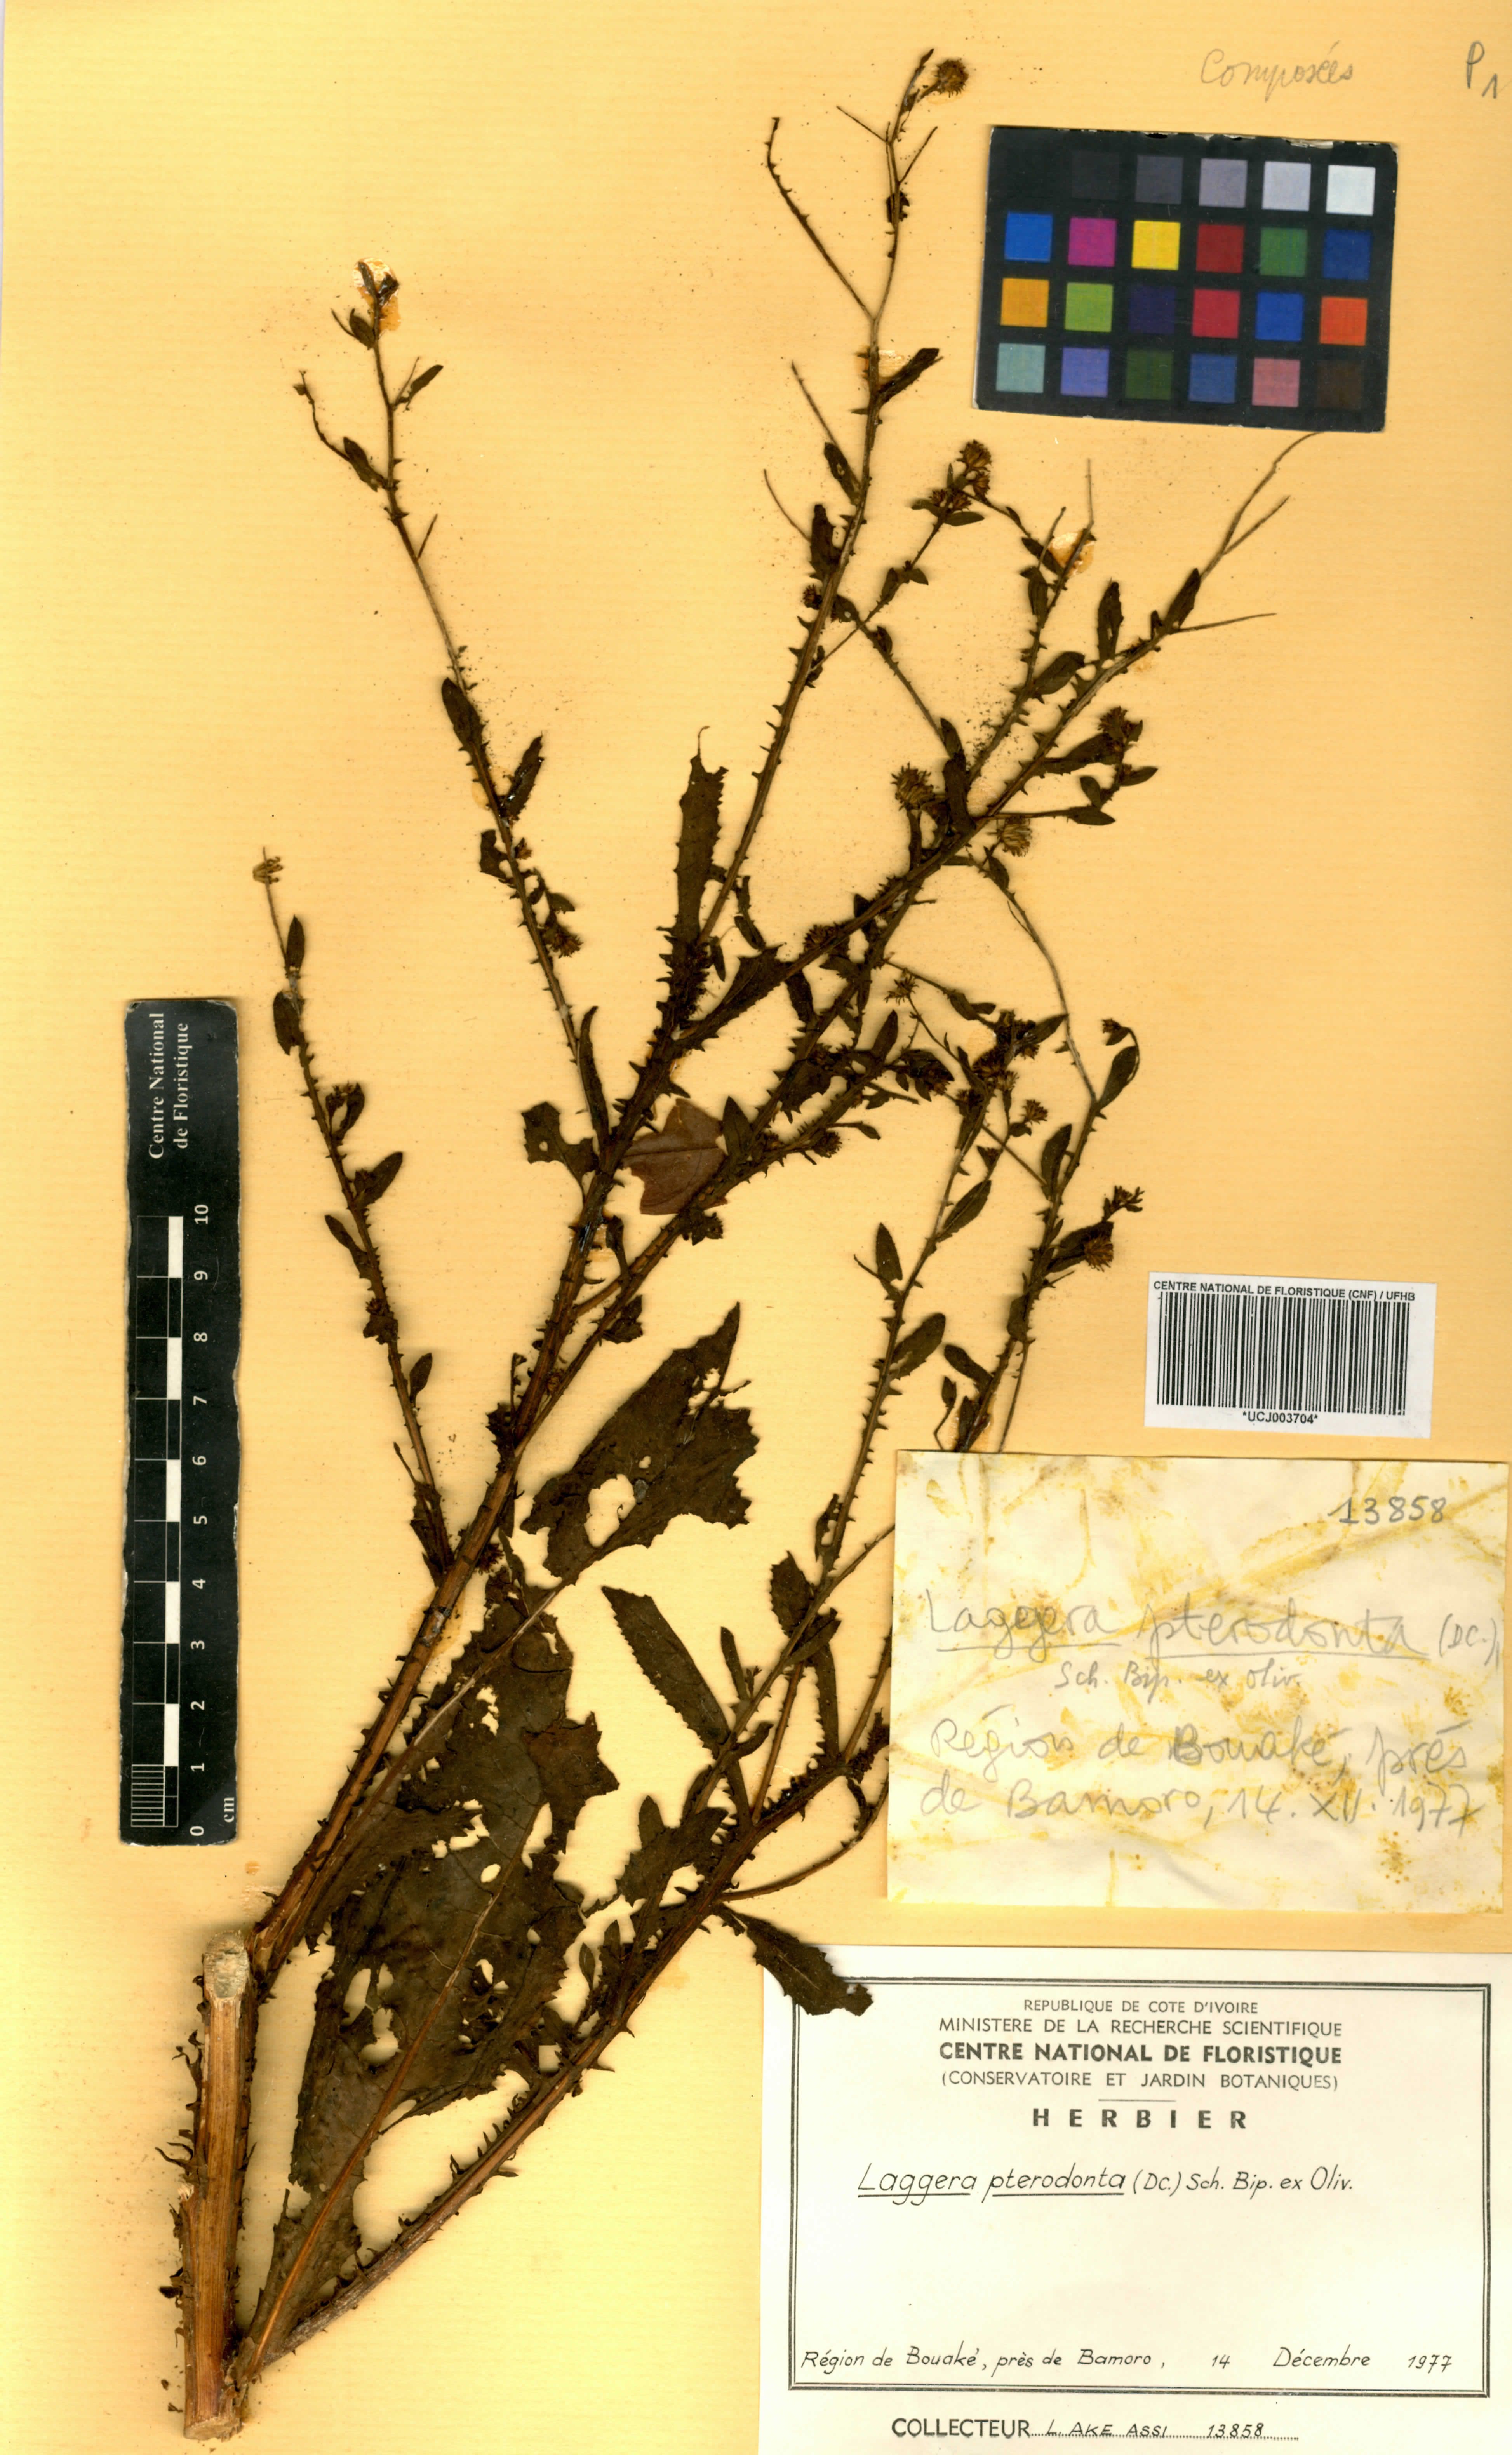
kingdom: Plantae
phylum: Tracheophyta
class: Magnoliopsida
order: Asterales
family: Asteraceae
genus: Laggera
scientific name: Laggera crispata
